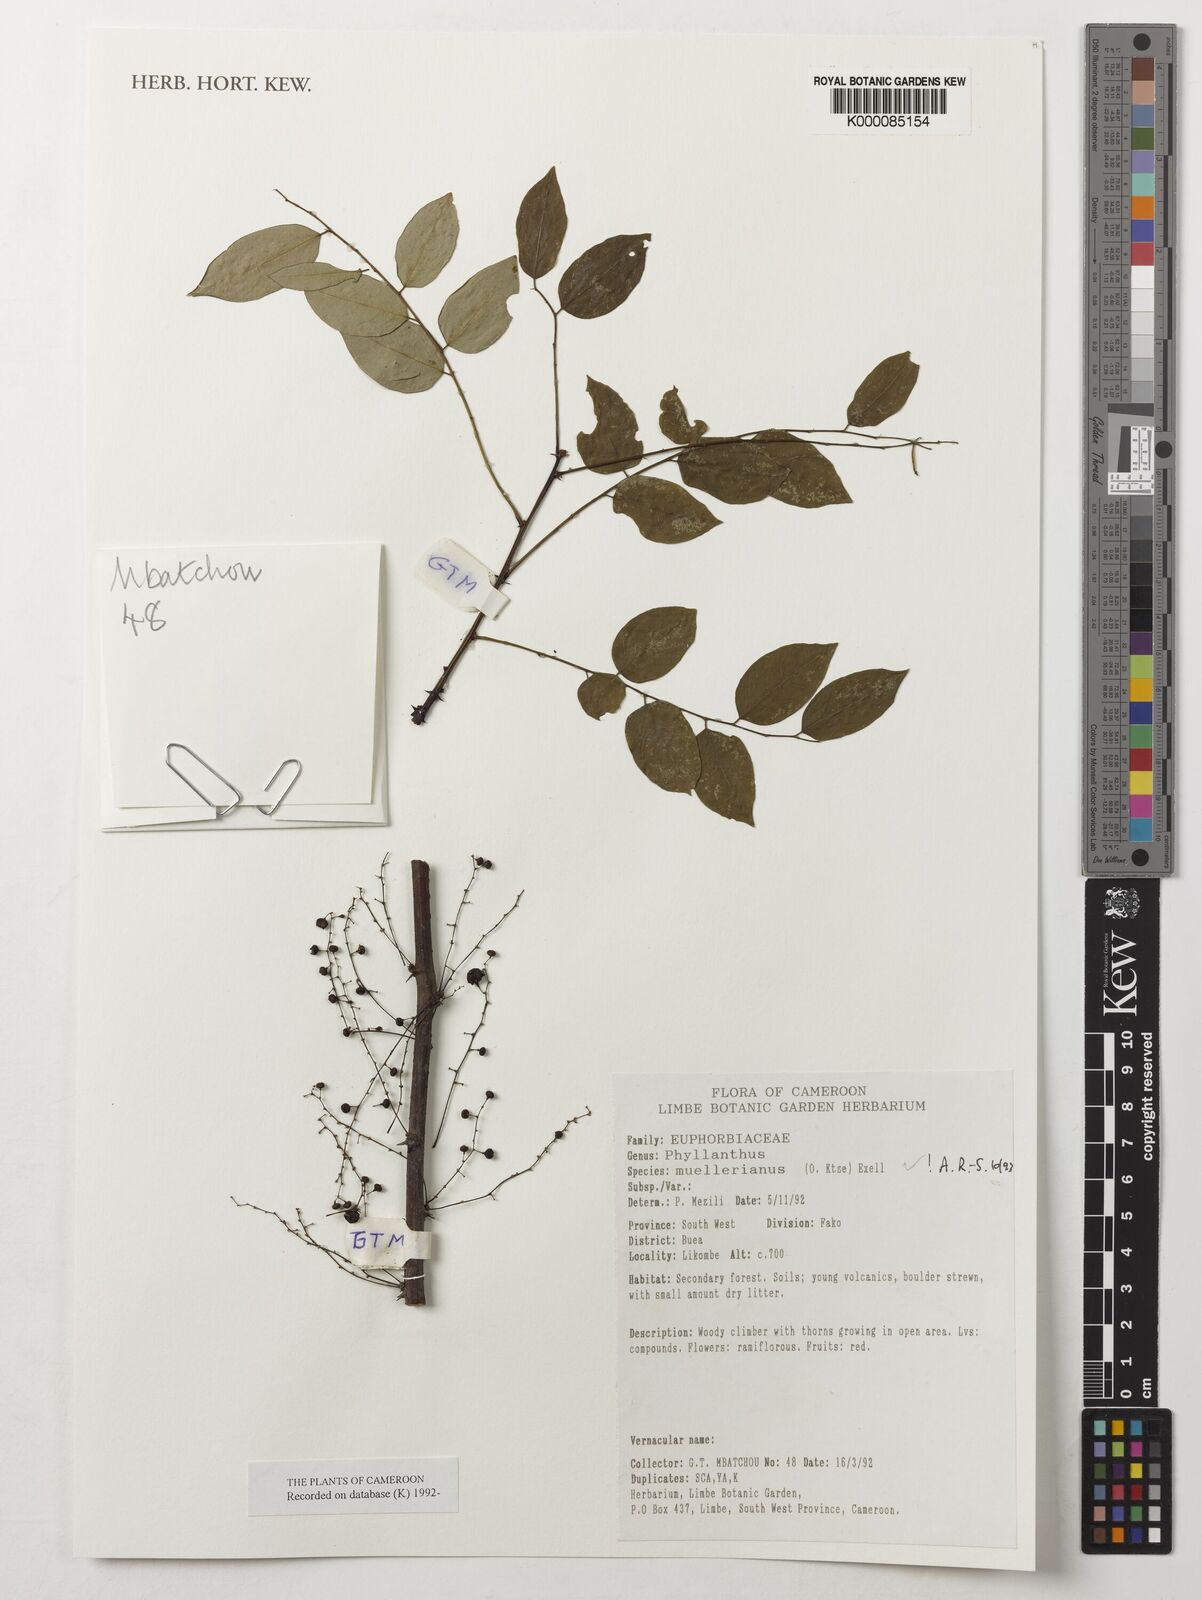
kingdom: Plantae
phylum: Tracheophyta
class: Magnoliopsida
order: Malpighiales
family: Phyllanthaceae
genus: Phyllanthus
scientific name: Phyllanthus muellerianus
